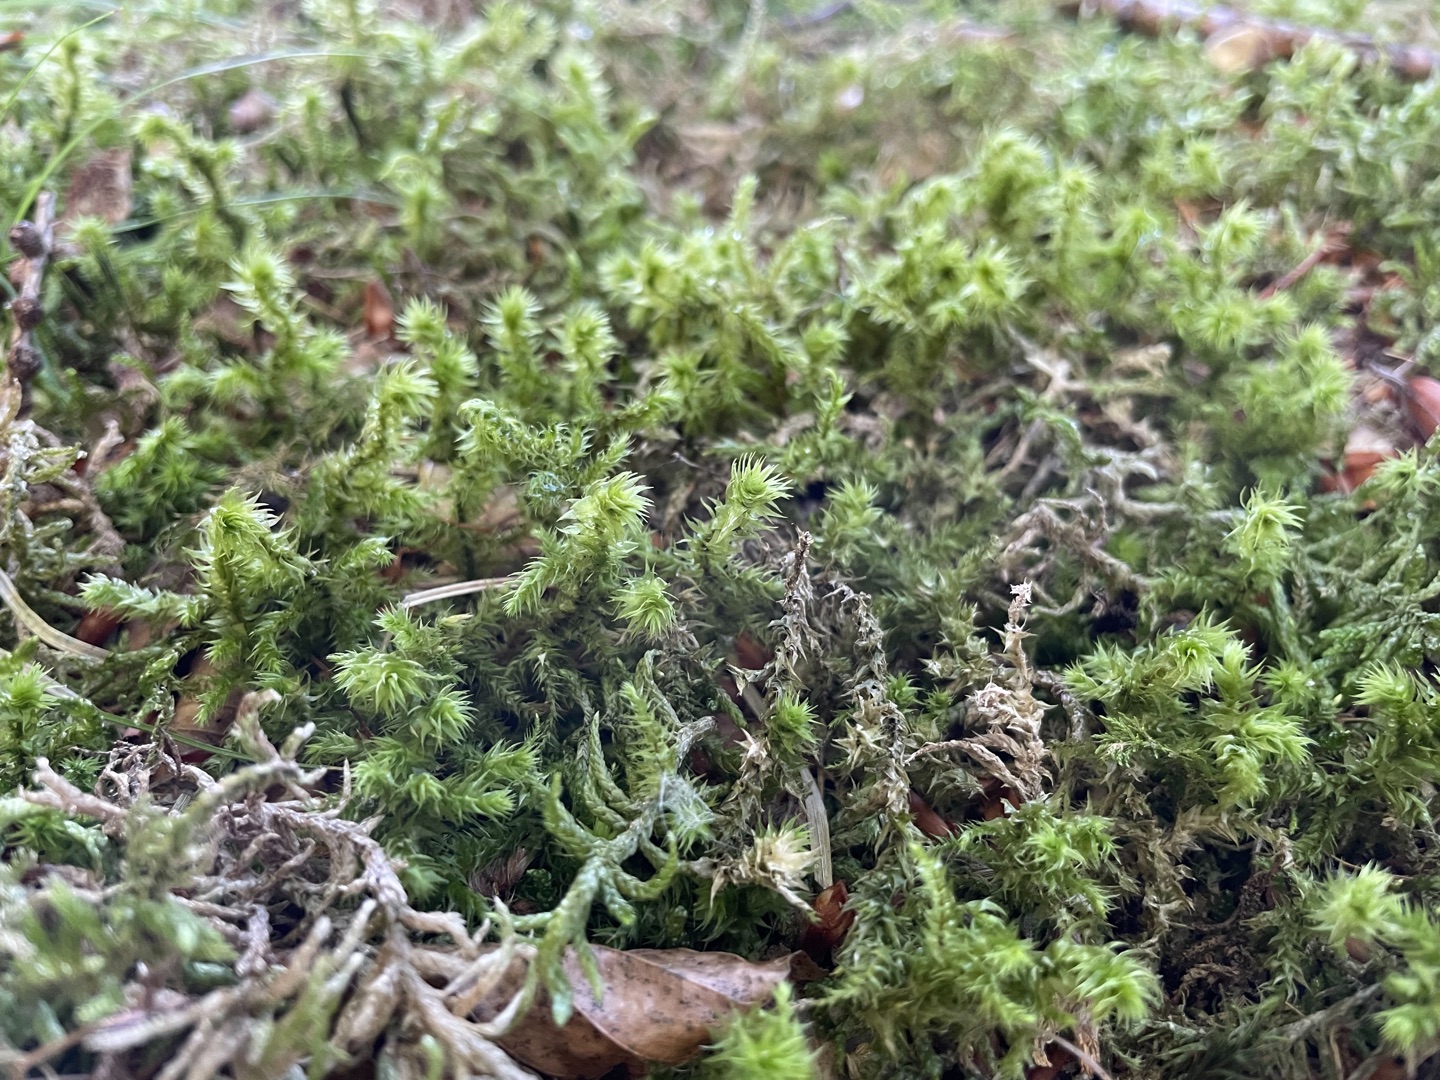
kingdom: Plantae
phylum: Bryophyta
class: Bryopsida
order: Hypnales
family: Hylocomiaceae
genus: Hylocomiadelphus
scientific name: Hylocomiadelphus triquetrus
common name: Stor kransemos
